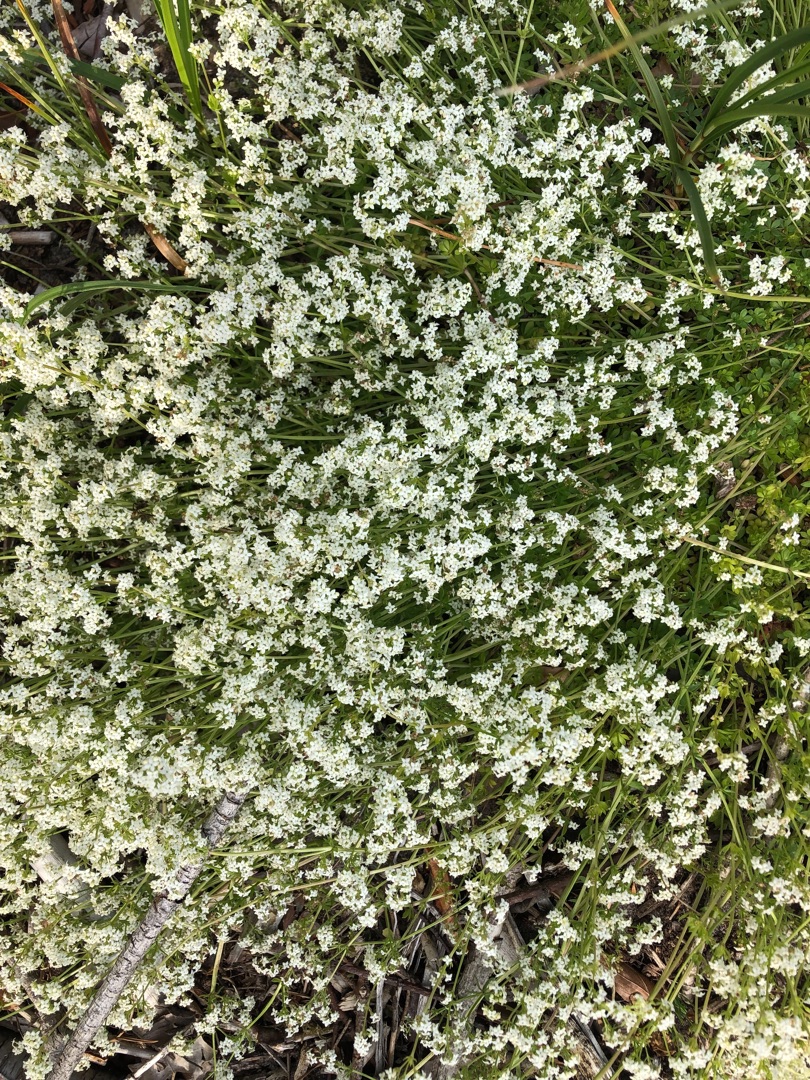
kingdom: Plantae
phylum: Tracheophyta
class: Magnoliopsida
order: Gentianales
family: Rubiaceae
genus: Galium
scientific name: Galium saxatile
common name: Lyng-snerre
